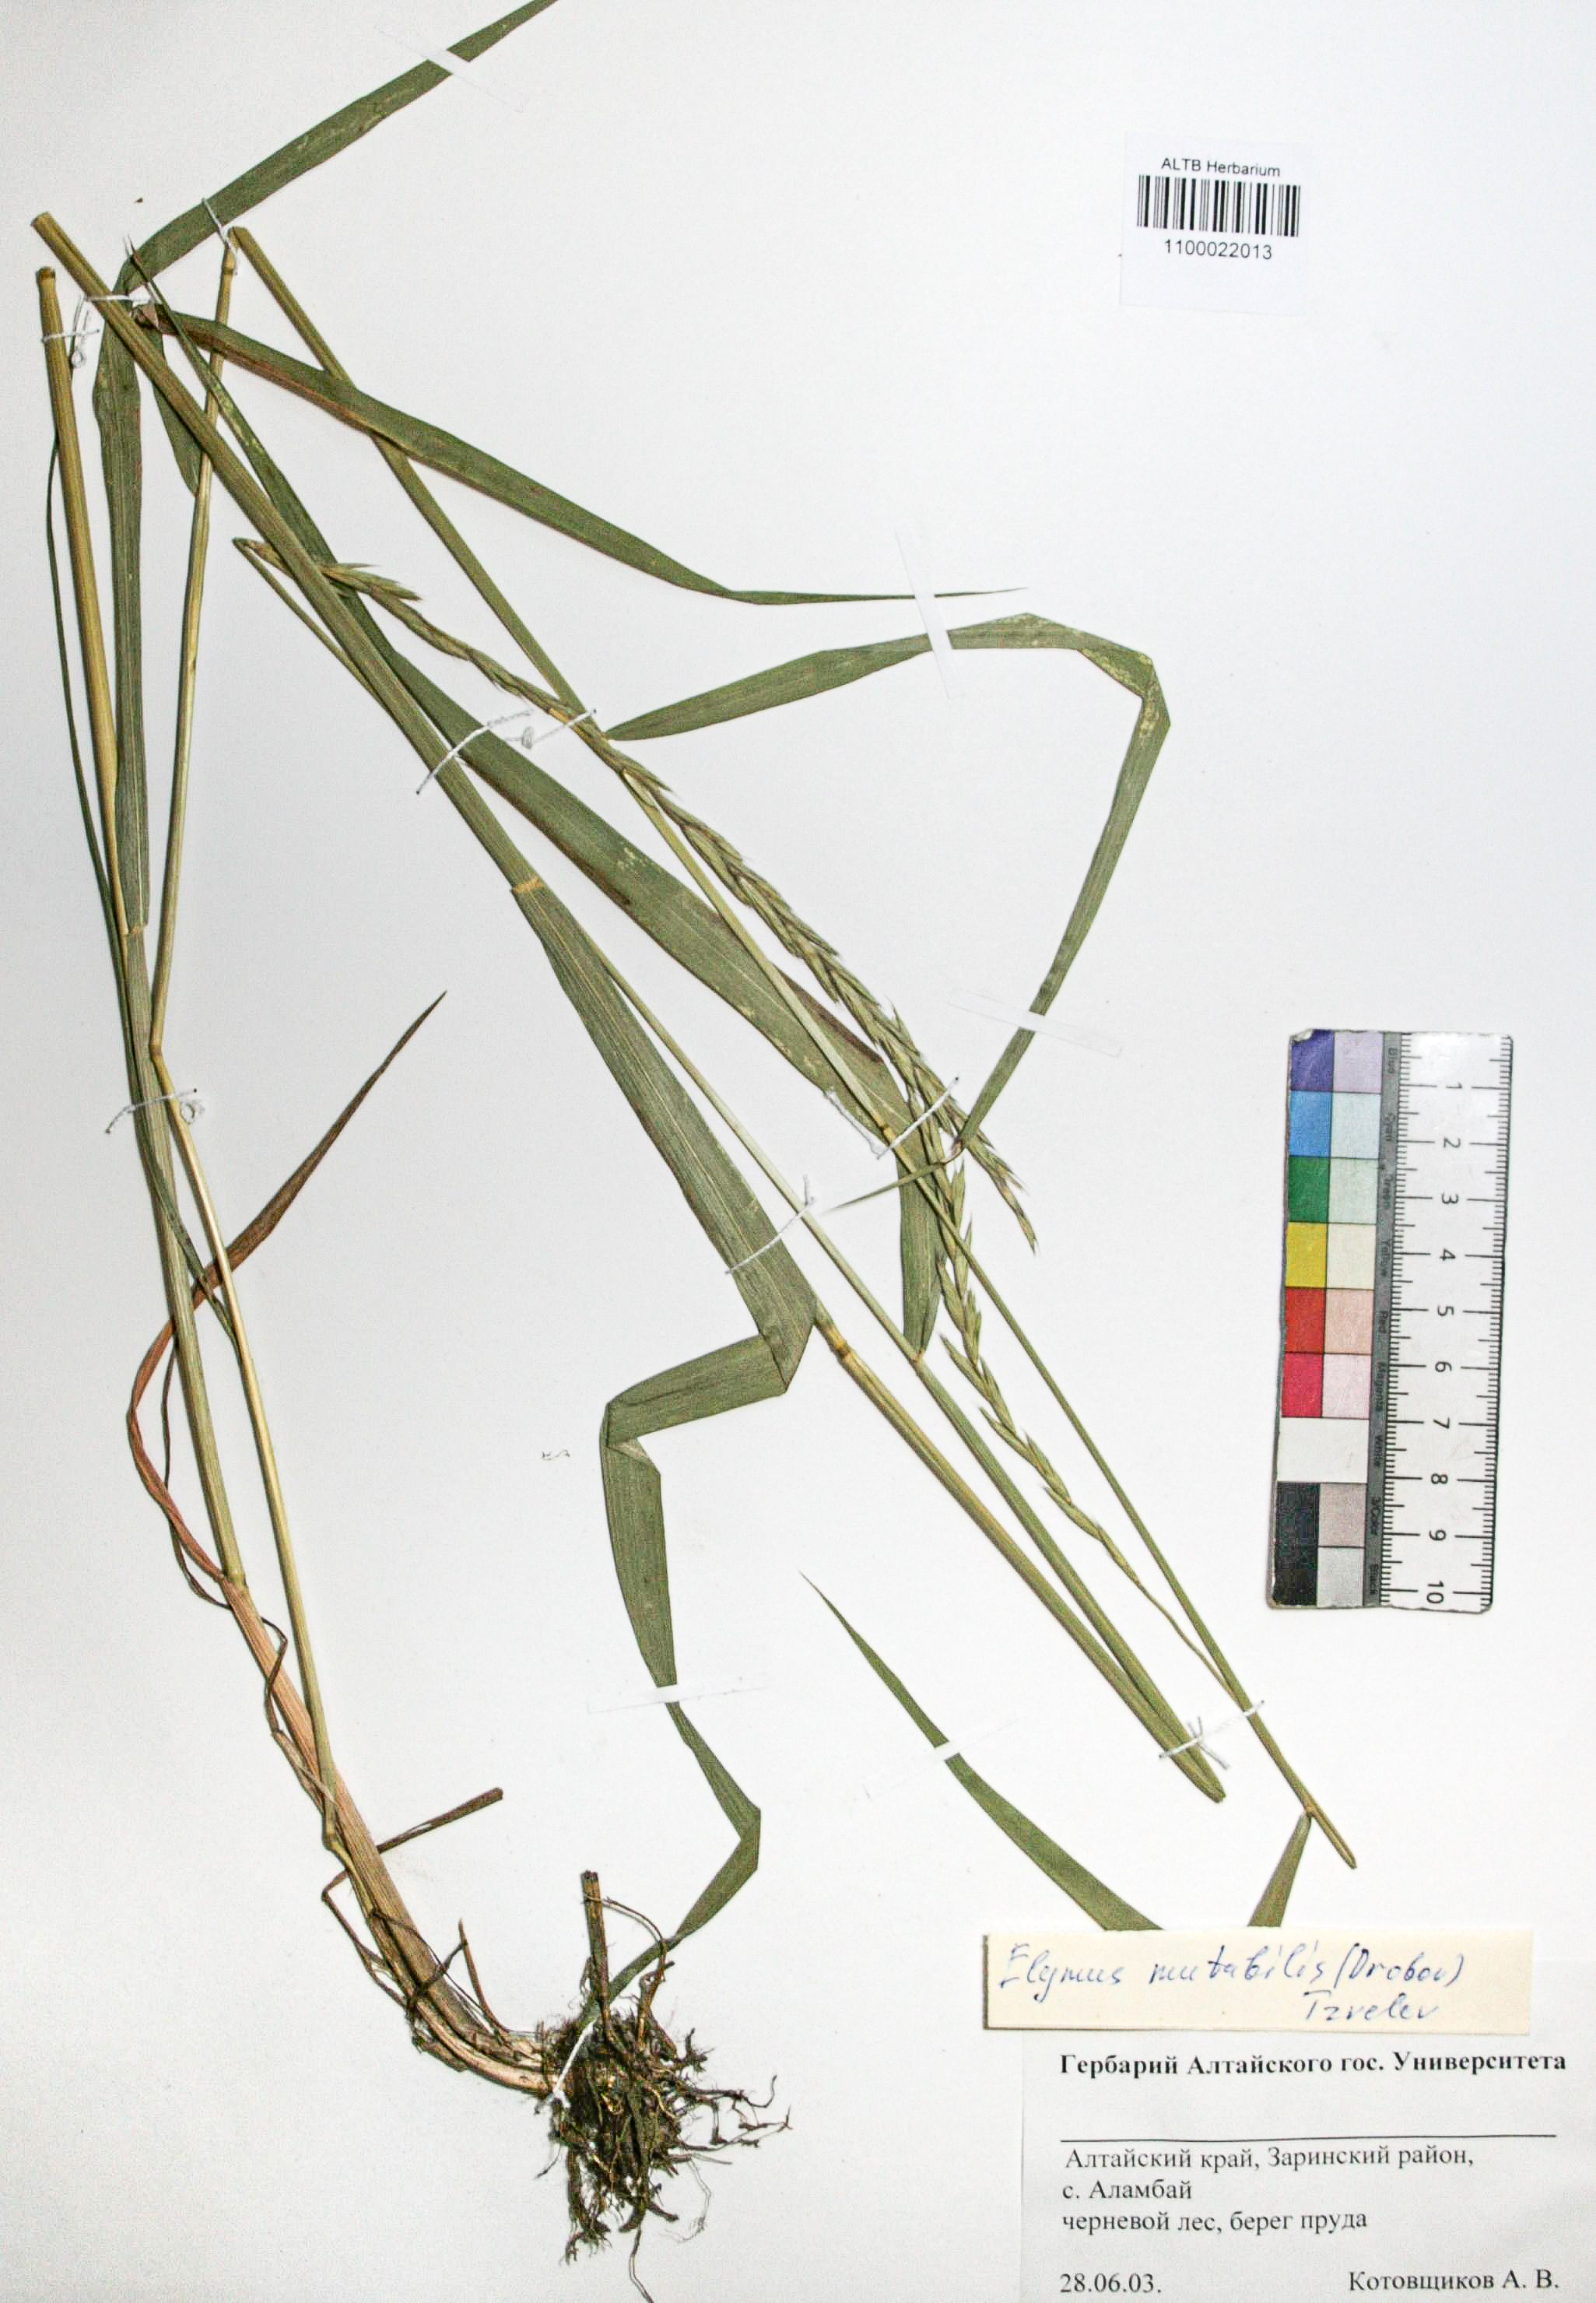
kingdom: Plantae
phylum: Tracheophyta
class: Liliopsida
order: Poales
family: Poaceae
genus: Elymus
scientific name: Elymus mutabilis
